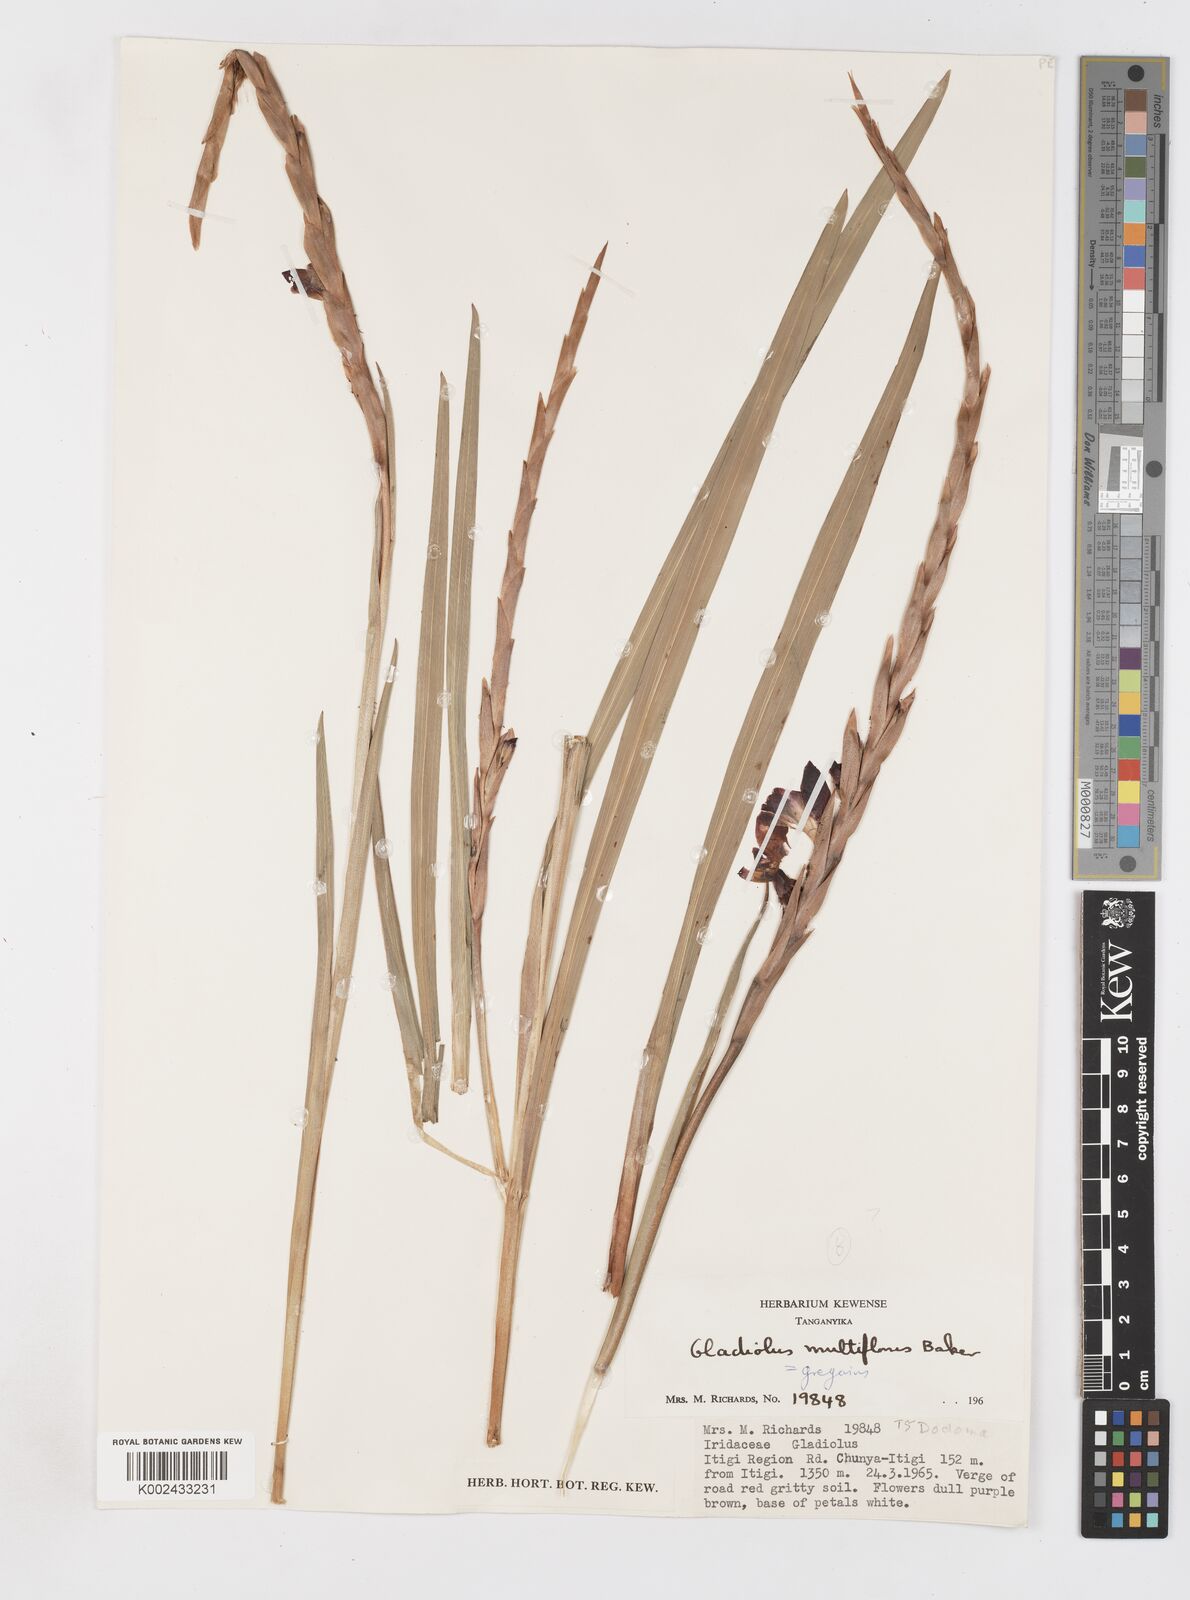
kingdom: Plantae
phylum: Tracheophyta
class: Liliopsida
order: Asparagales
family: Iridaceae
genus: Gladiolus
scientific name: Gladiolus gregarius
